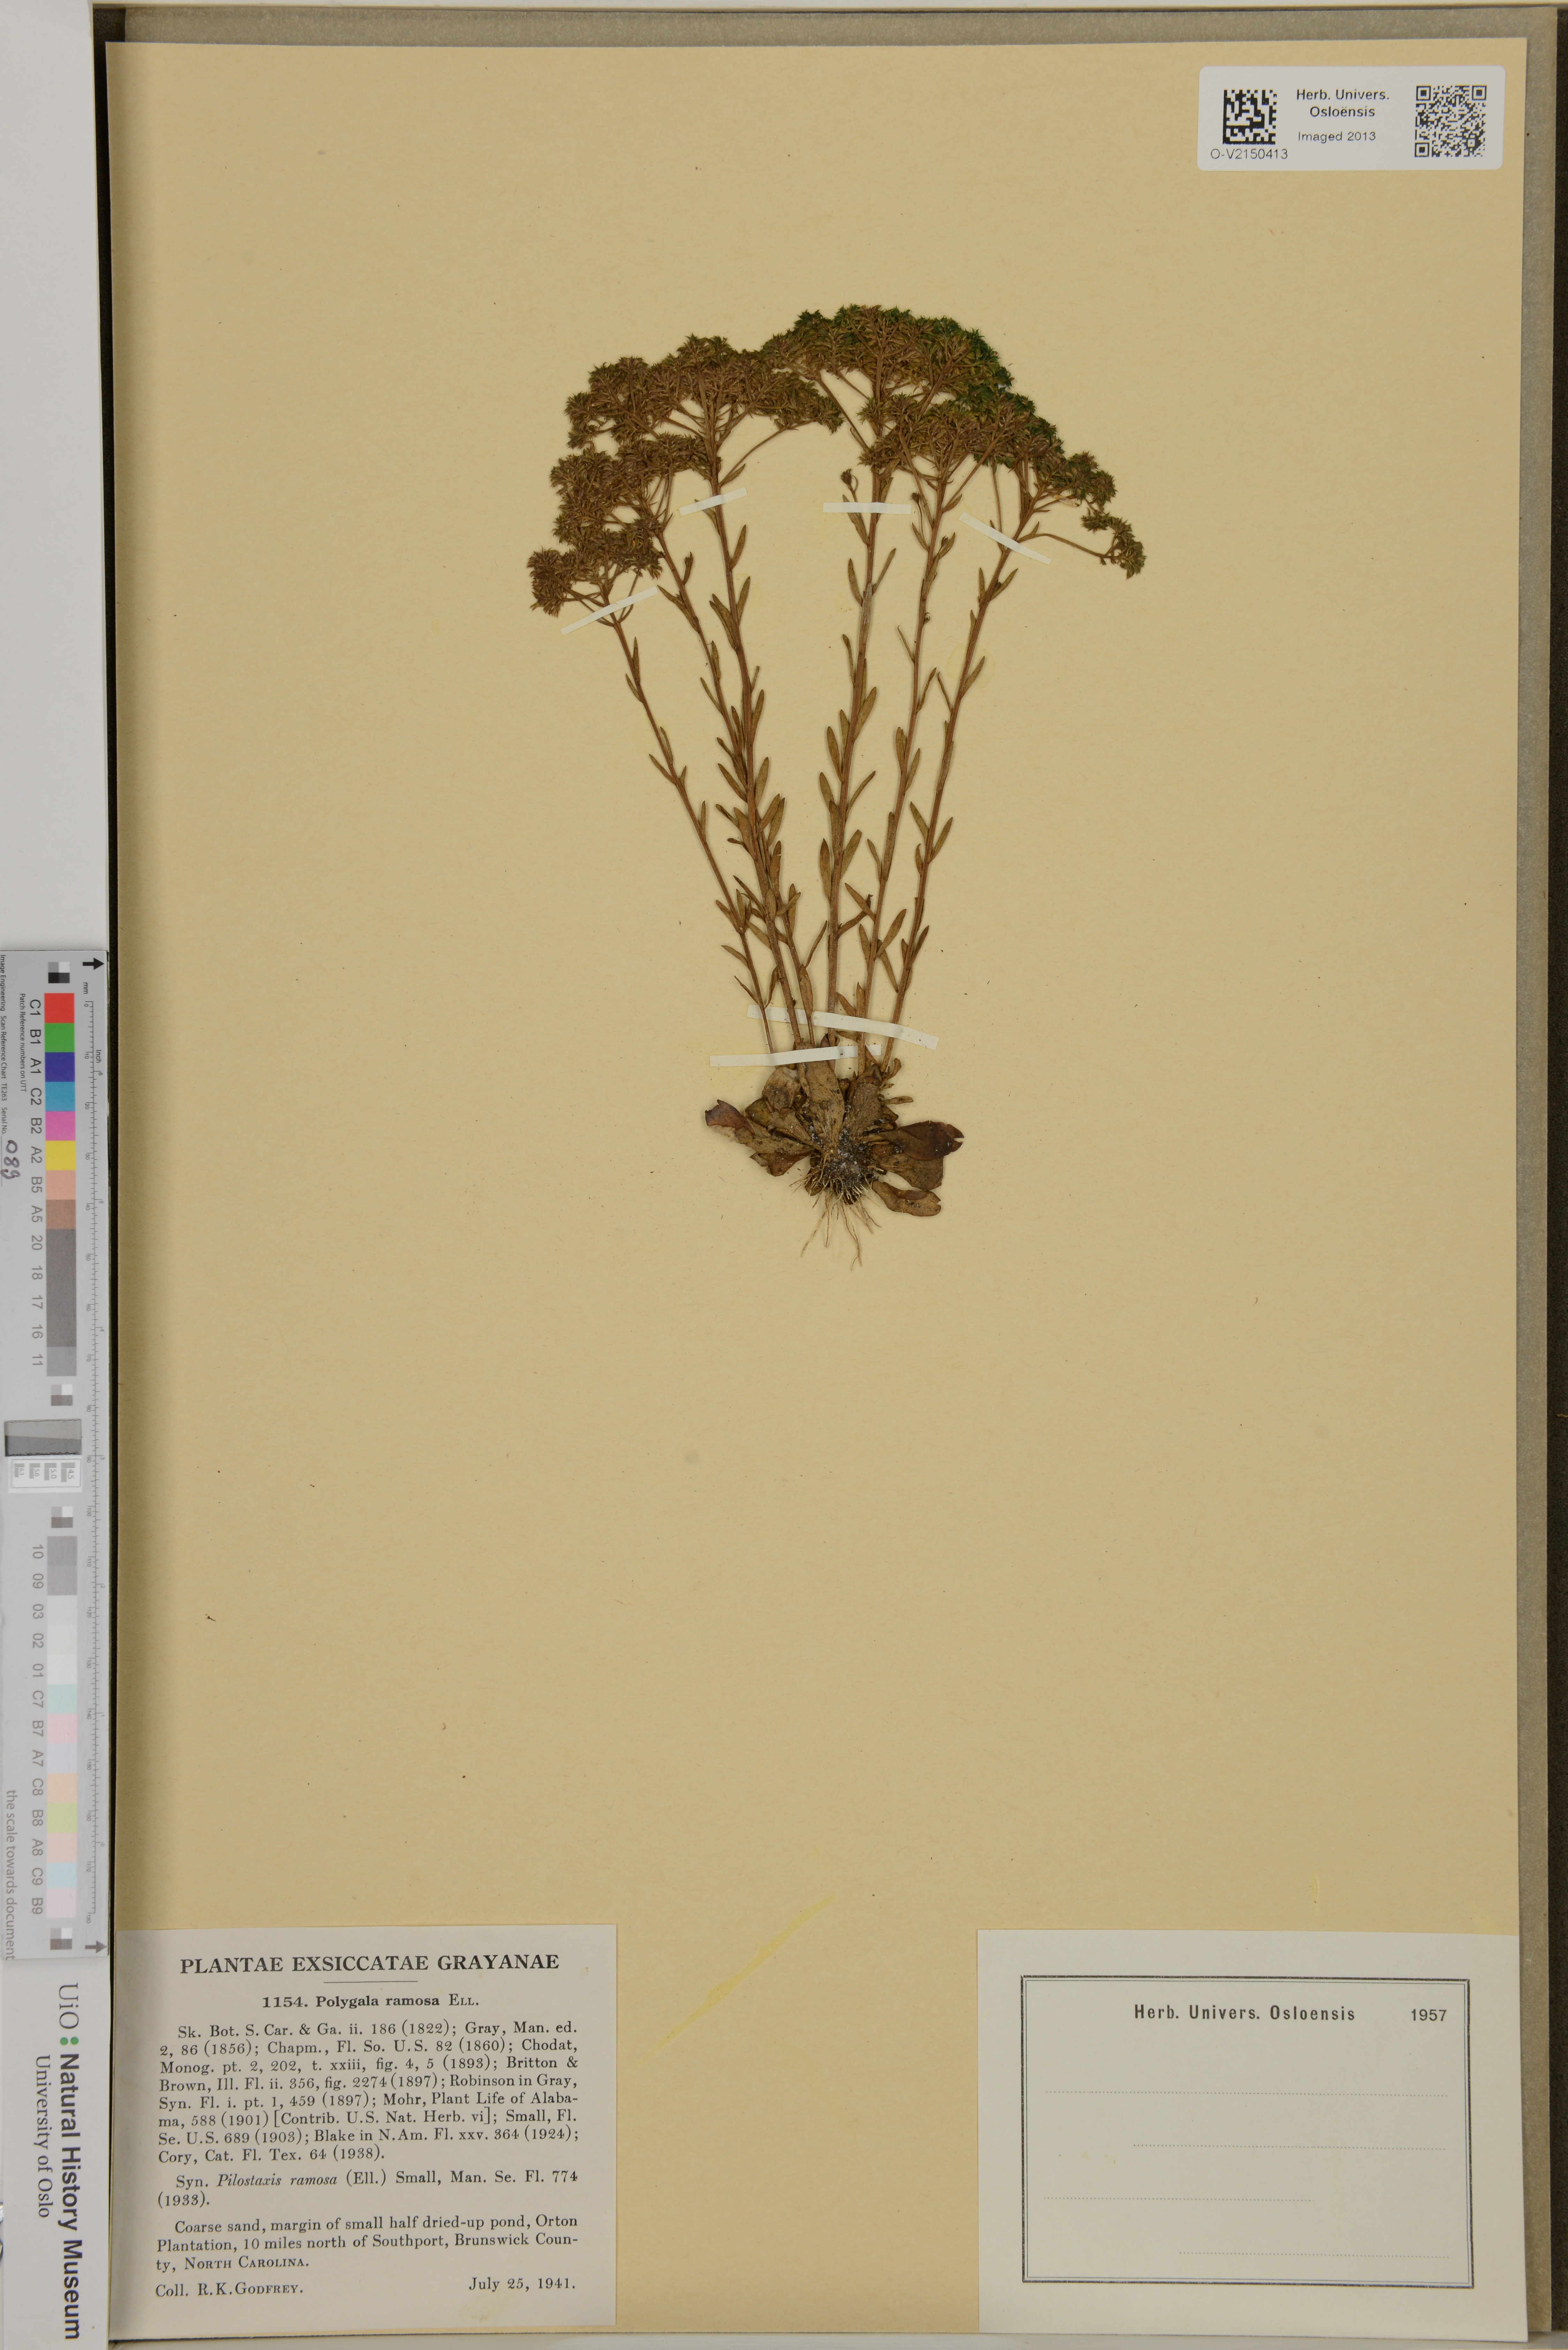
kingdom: Plantae
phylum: Tracheophyta
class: Magnoliopsida
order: Fabales
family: Polygalaceae
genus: Polygala
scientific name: Polygala ramosa
